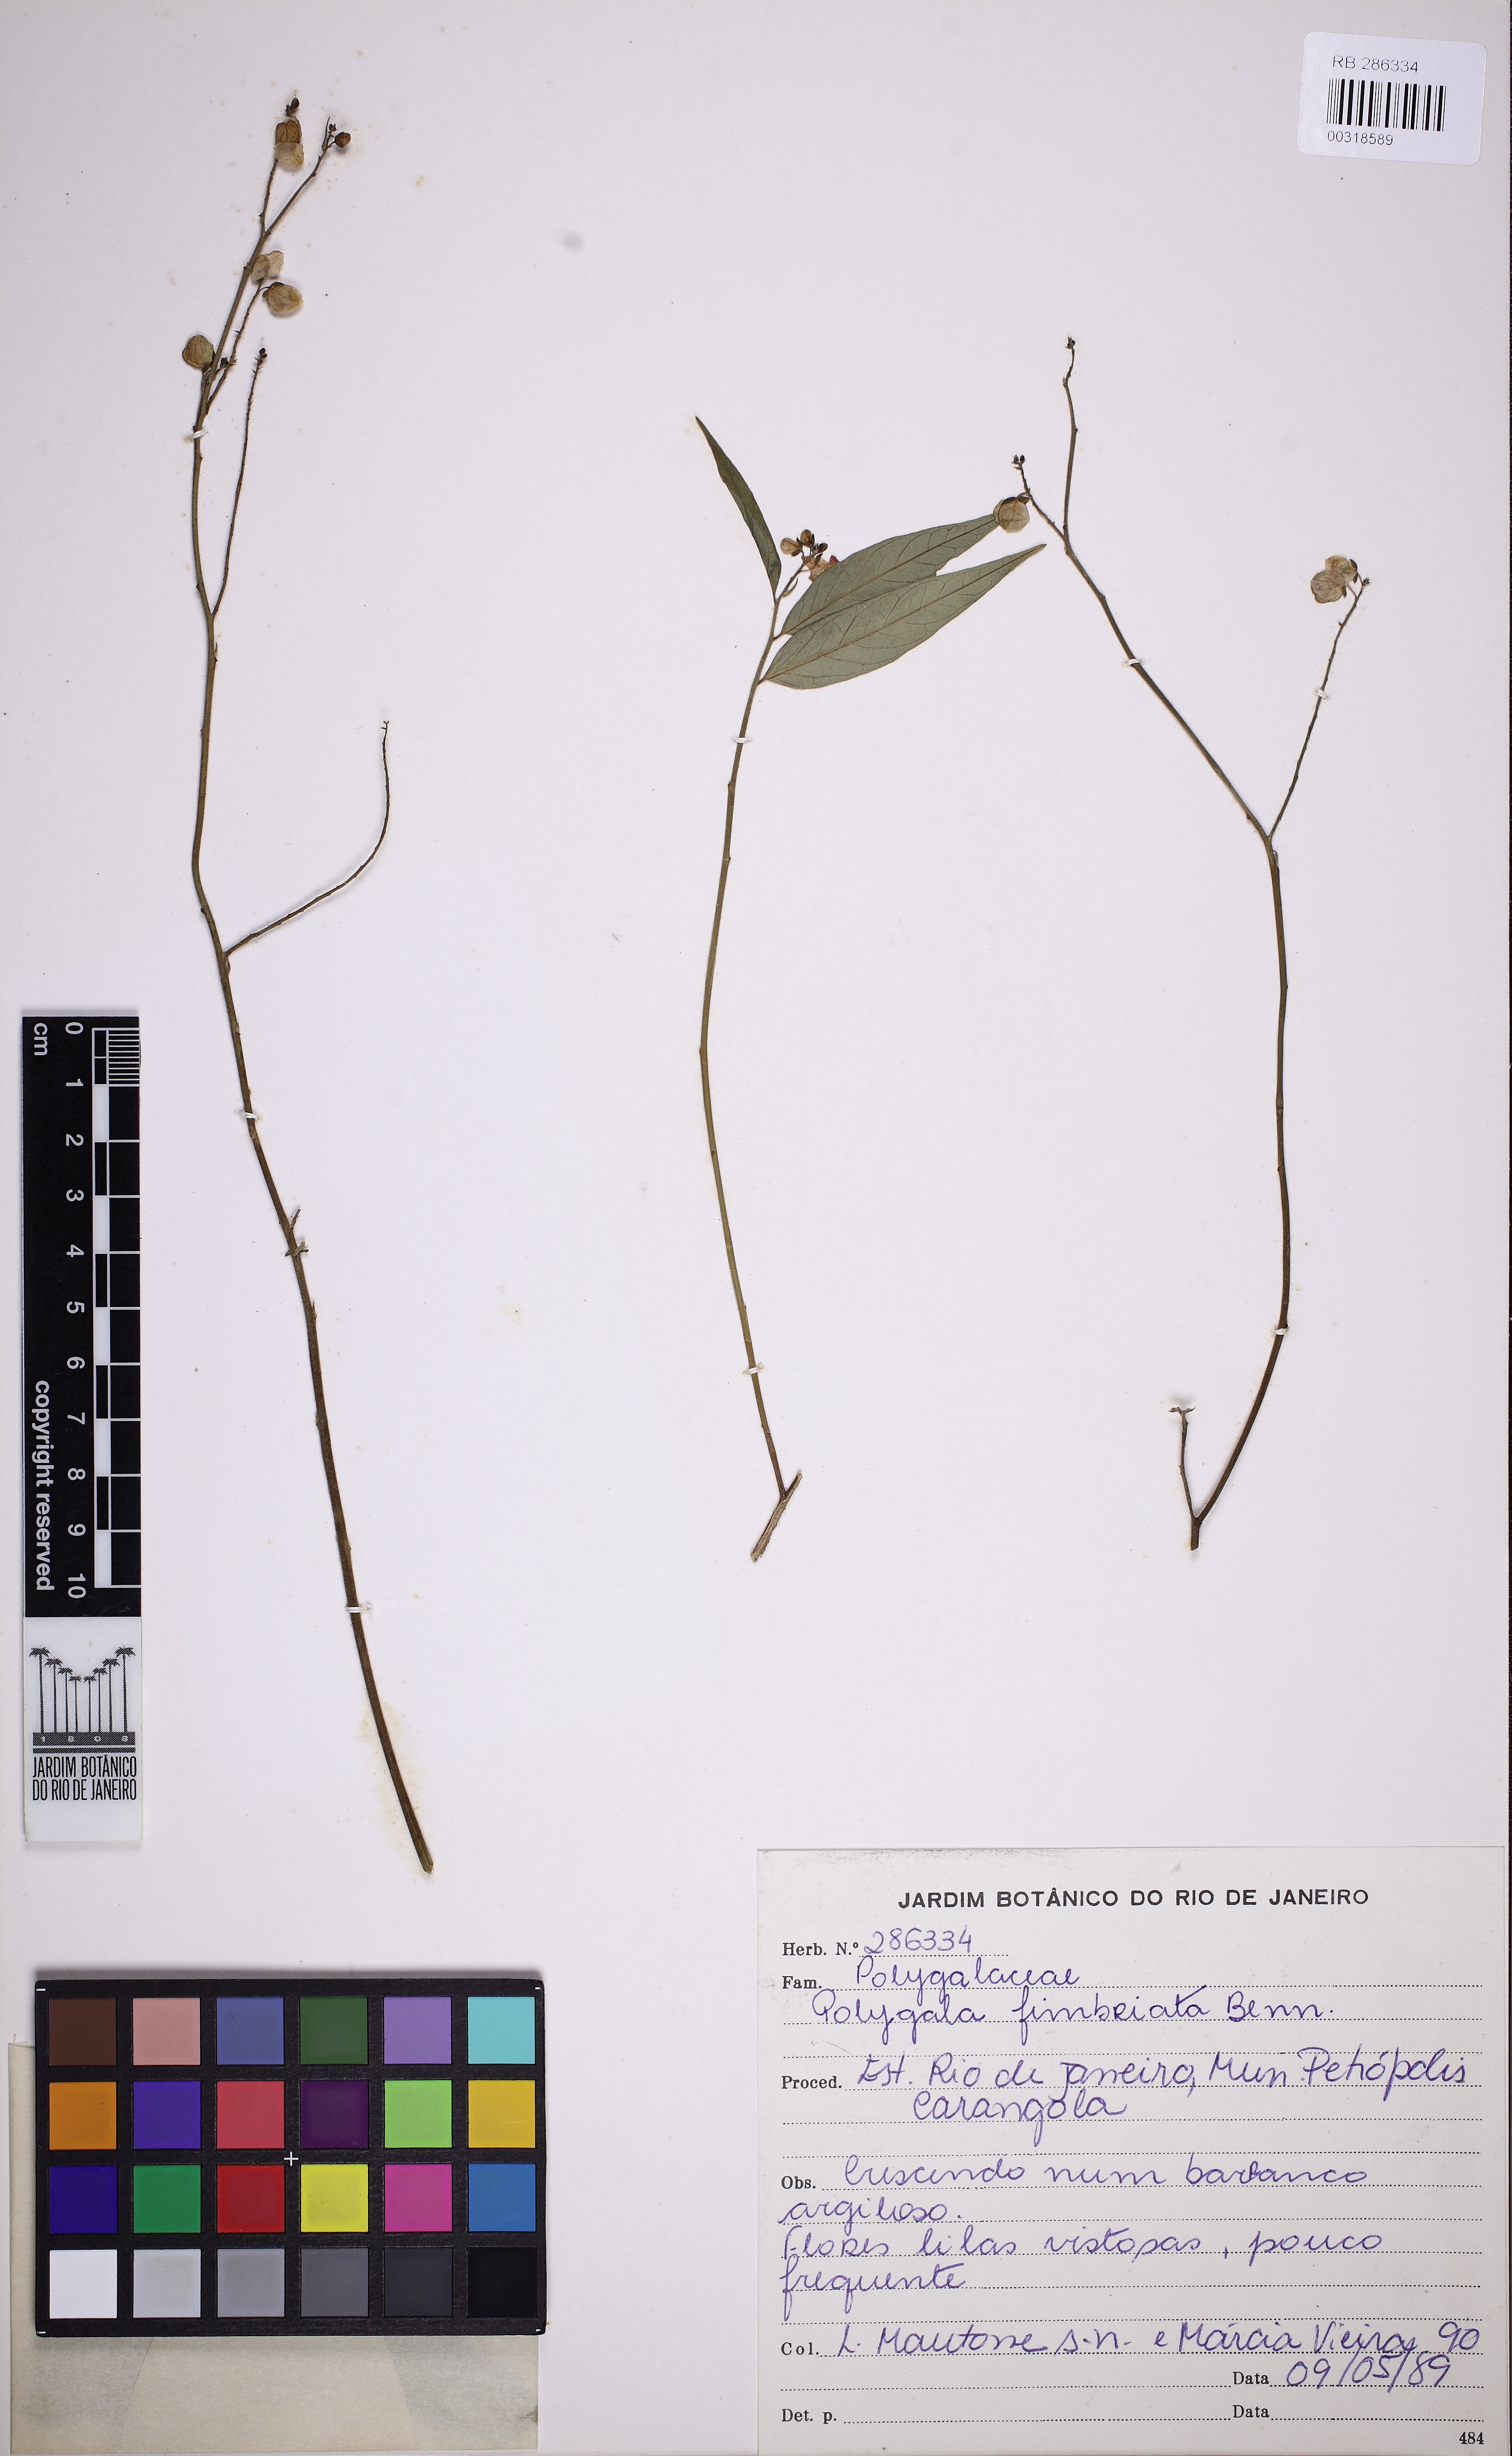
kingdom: Plantae
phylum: Tracheophyta
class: Magnoliopsida
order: Fabales
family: Polygalaceae
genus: Asemeia
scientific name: Asemeia acuminata
